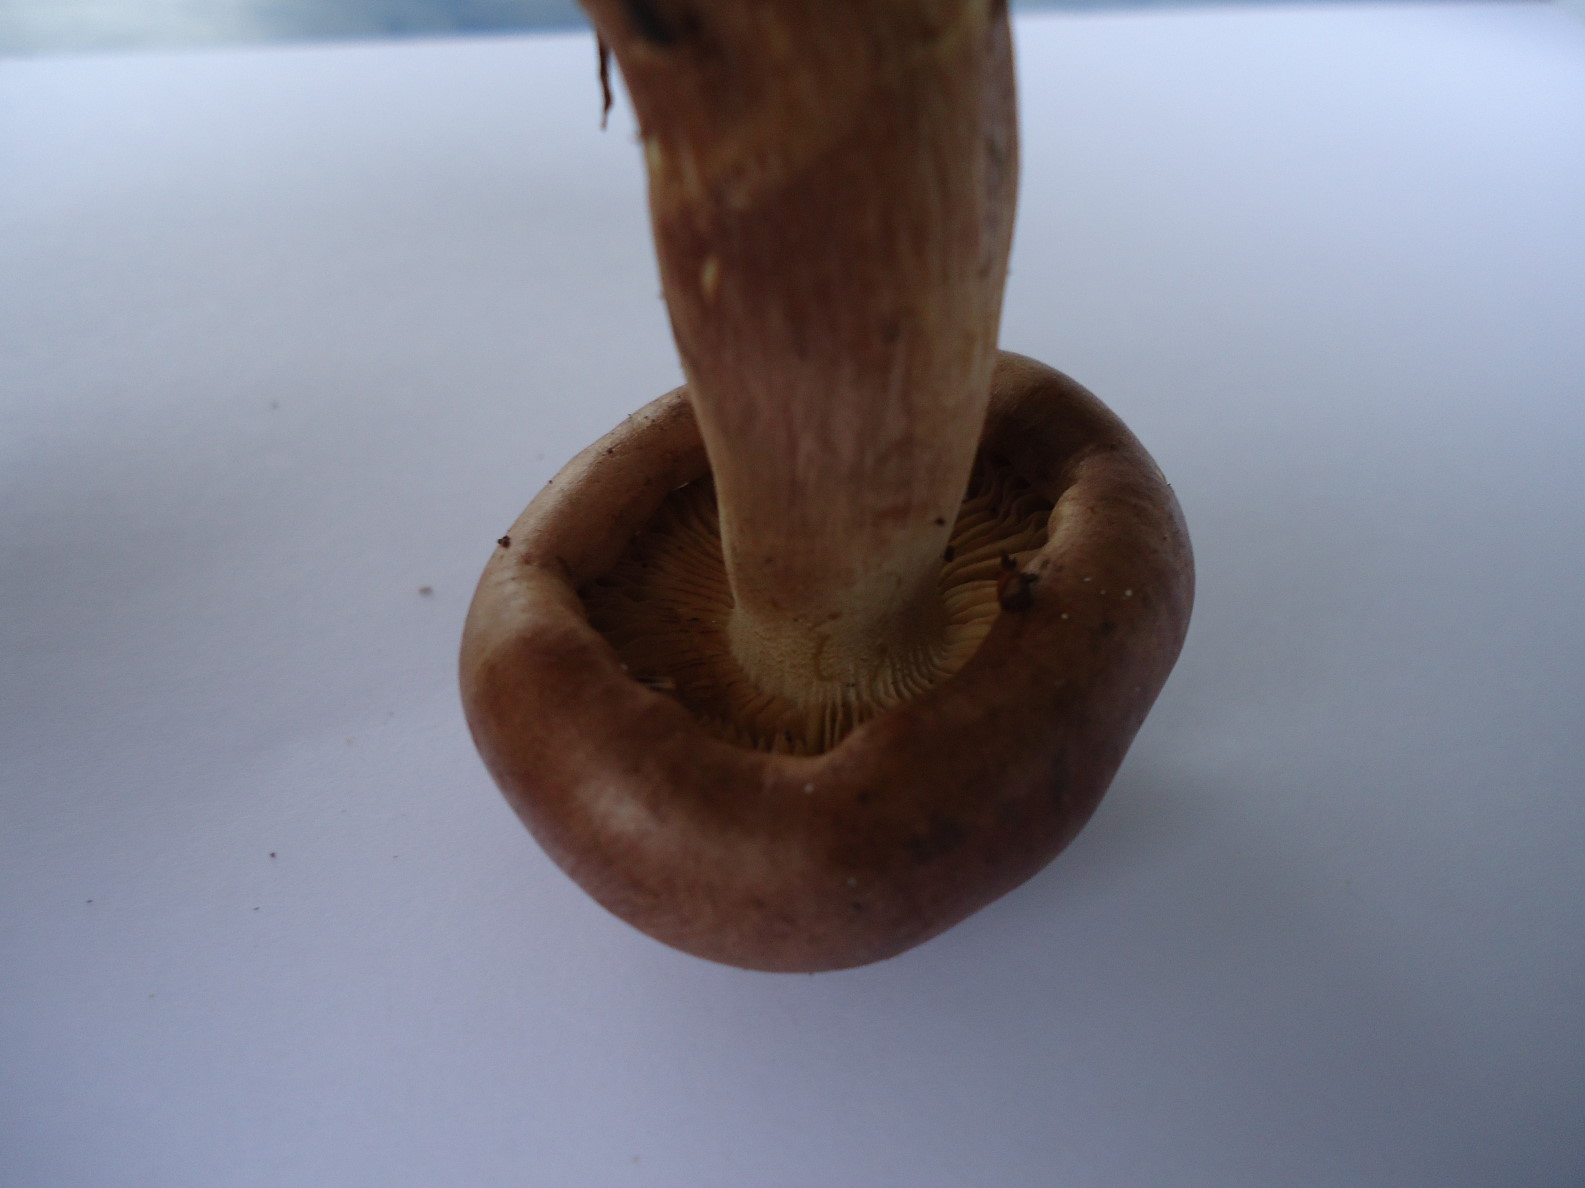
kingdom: Fungi
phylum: Basidiomycota
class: Agaricomycetes
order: Agaricales
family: Tricholomataceae
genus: Tricholoma
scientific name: Tricholoma fulvum
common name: birke-ridderhat
